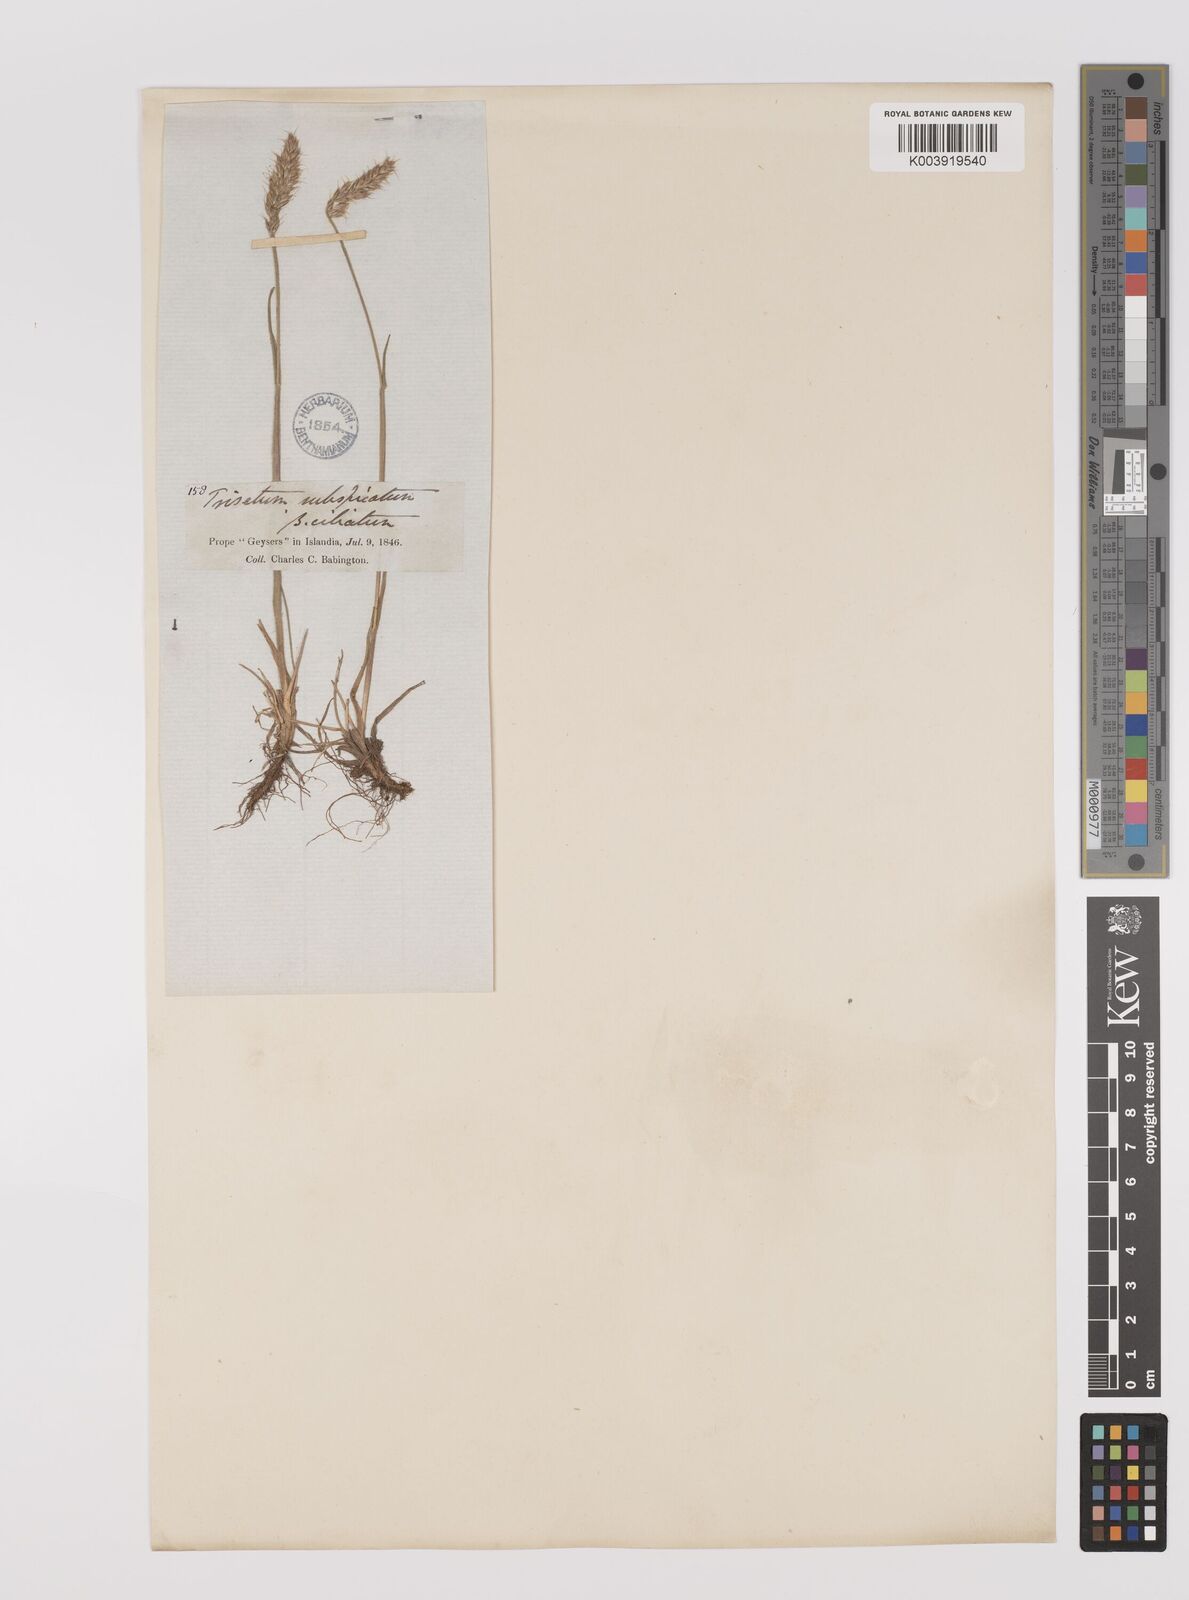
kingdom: Plantae
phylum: Tracheophyta
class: Liliopsida
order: Poales
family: Poaceae
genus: Koeleria
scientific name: Koeleria spicata
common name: Mountain trisetum
